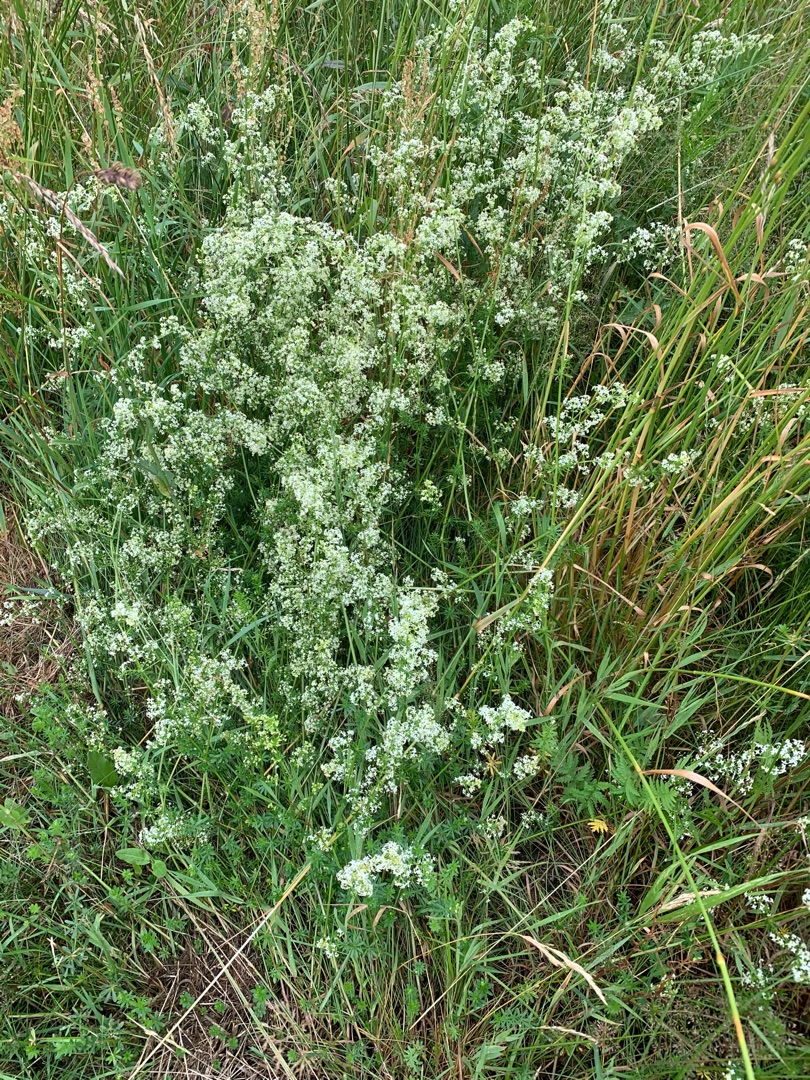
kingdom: Plantae
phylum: Tracheophyta
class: Magnoliopsida
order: Gentianales
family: Rubiaceae
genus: Galium
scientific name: Galium mollugo
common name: Hvid snerre
